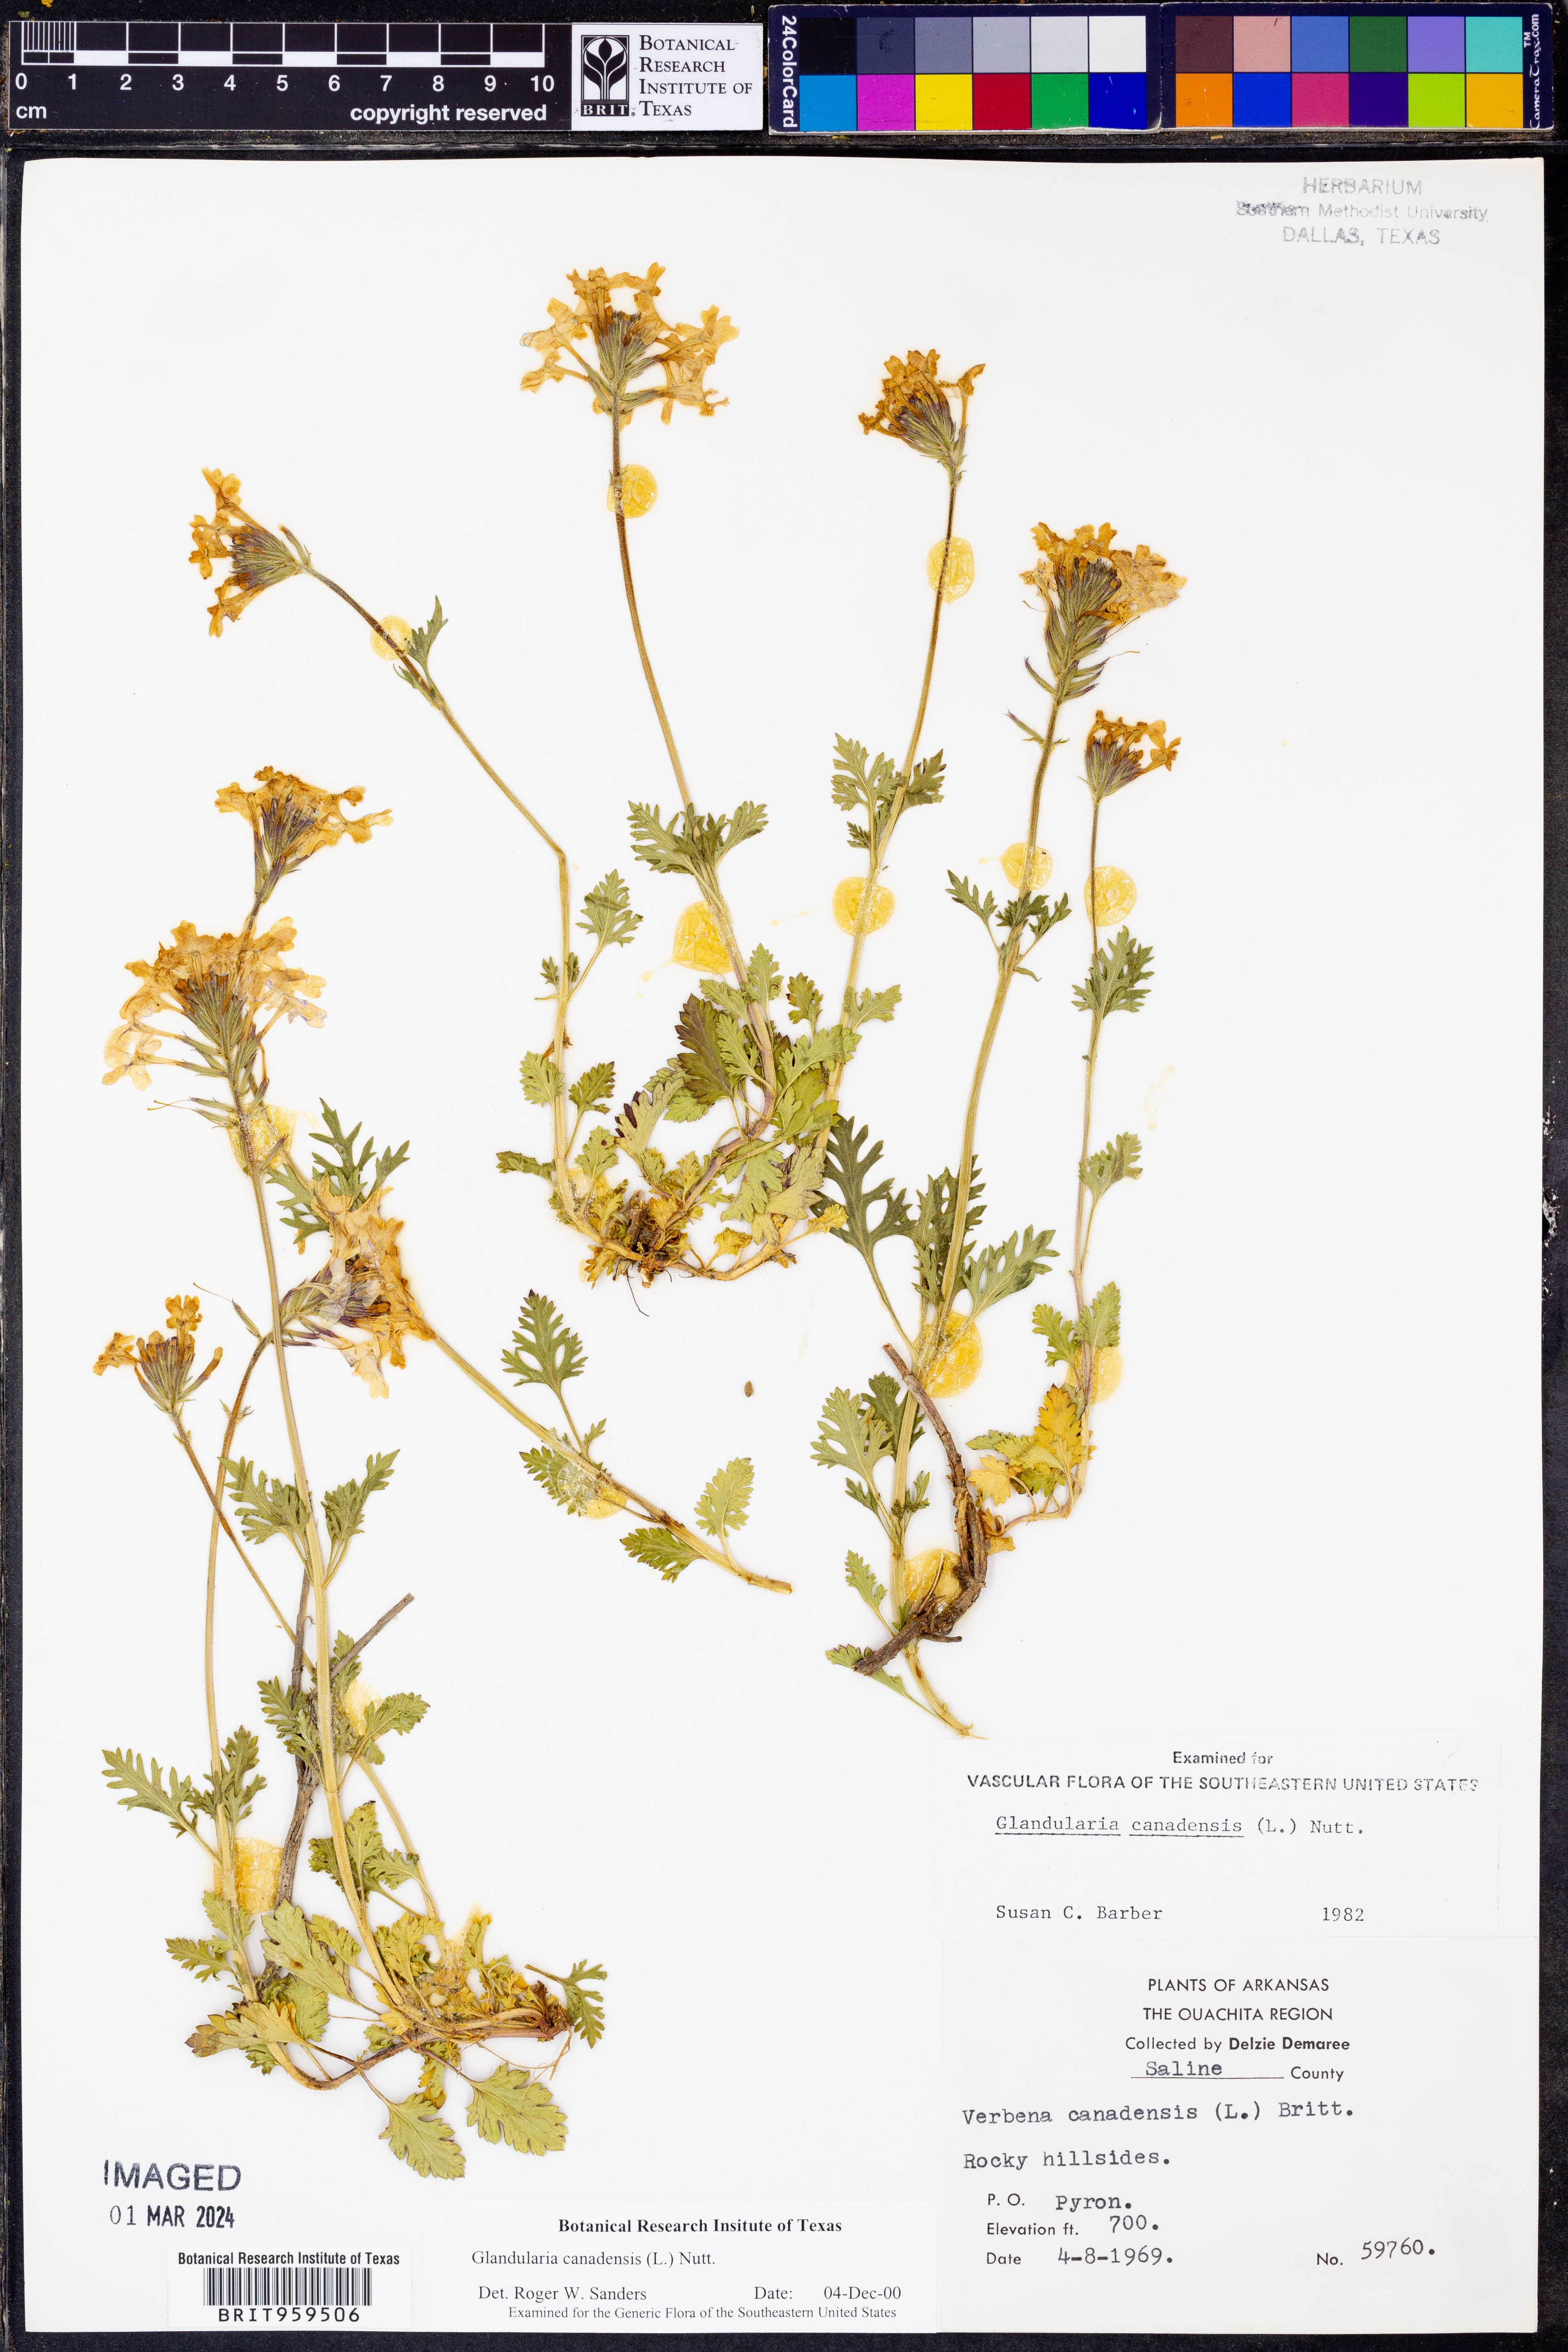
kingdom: Plantae
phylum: Tracheophyta
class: Magnoliopsida
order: Lamiales
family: Verbenaceae
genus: Verbena
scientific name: Verbena canadensis
